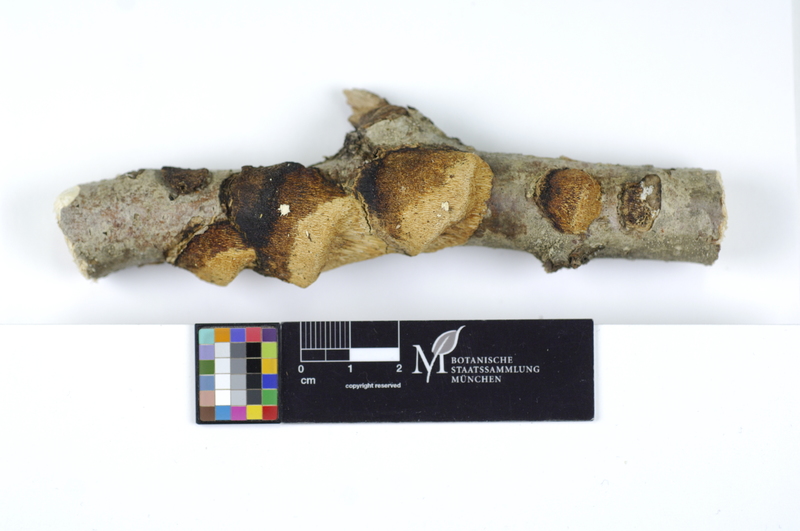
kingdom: Fungi
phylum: Basidiomycota
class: Agaricomycetes
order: Polyporales
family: Polyporaceae
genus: Szczepkamyces
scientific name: Szczepkamyces campestris
